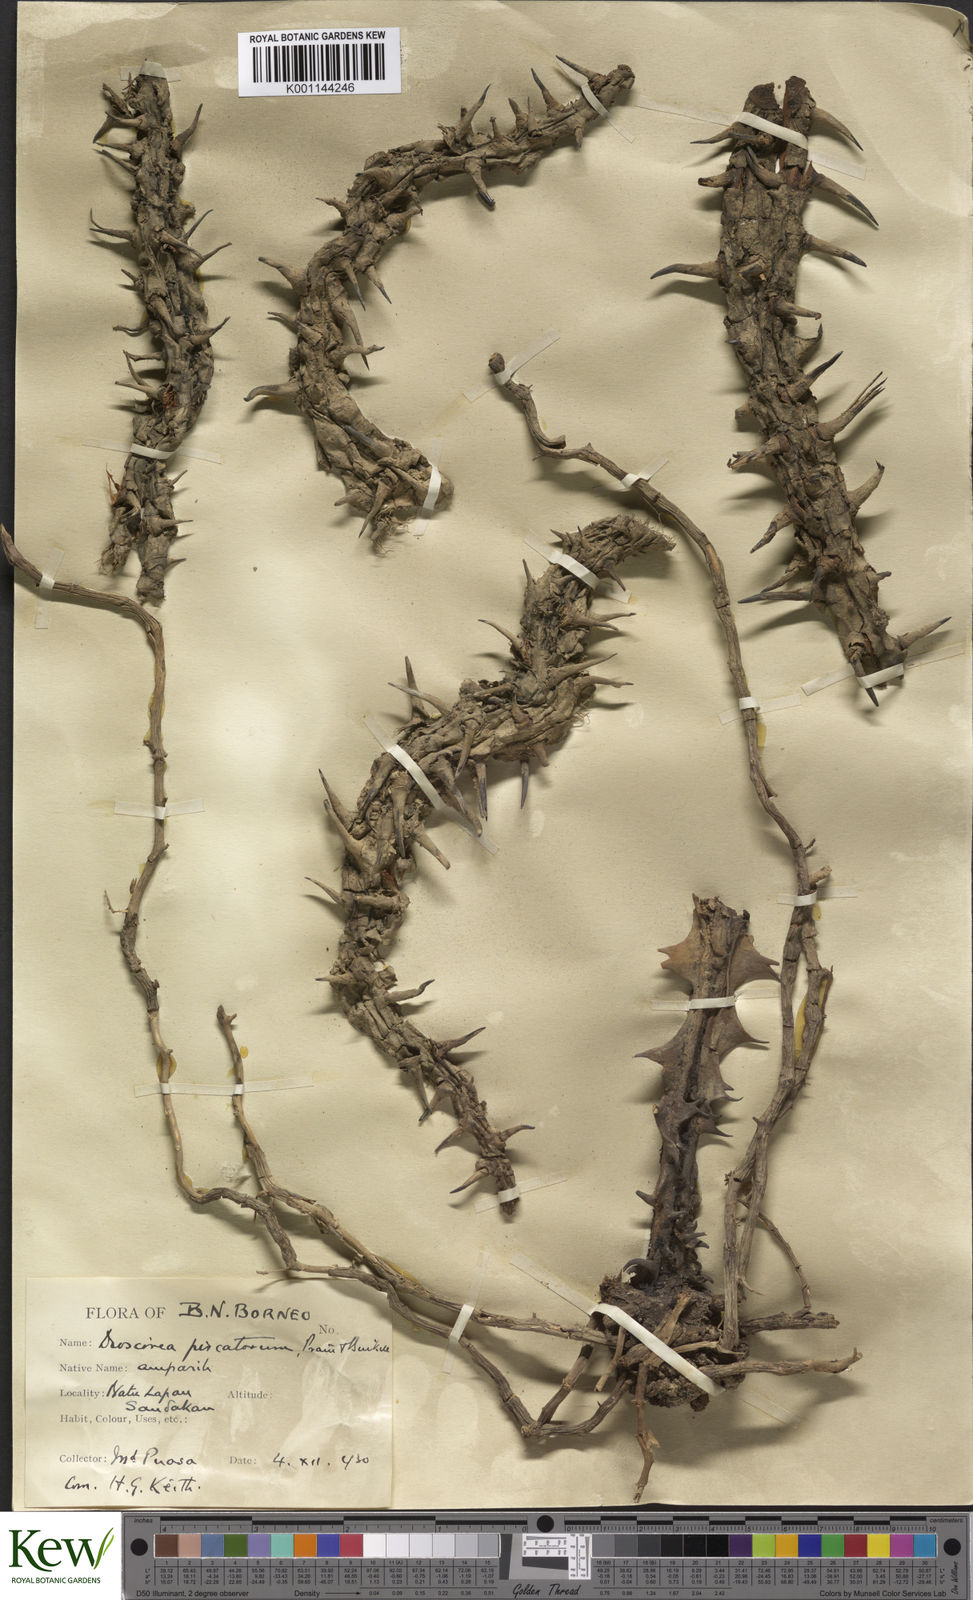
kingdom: Plantae
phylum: Tracheophyta
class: Liliopsida
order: Dioscoreales
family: Dioscoreaceae
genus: Dioscorea
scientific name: Dioscorea piscatorum
